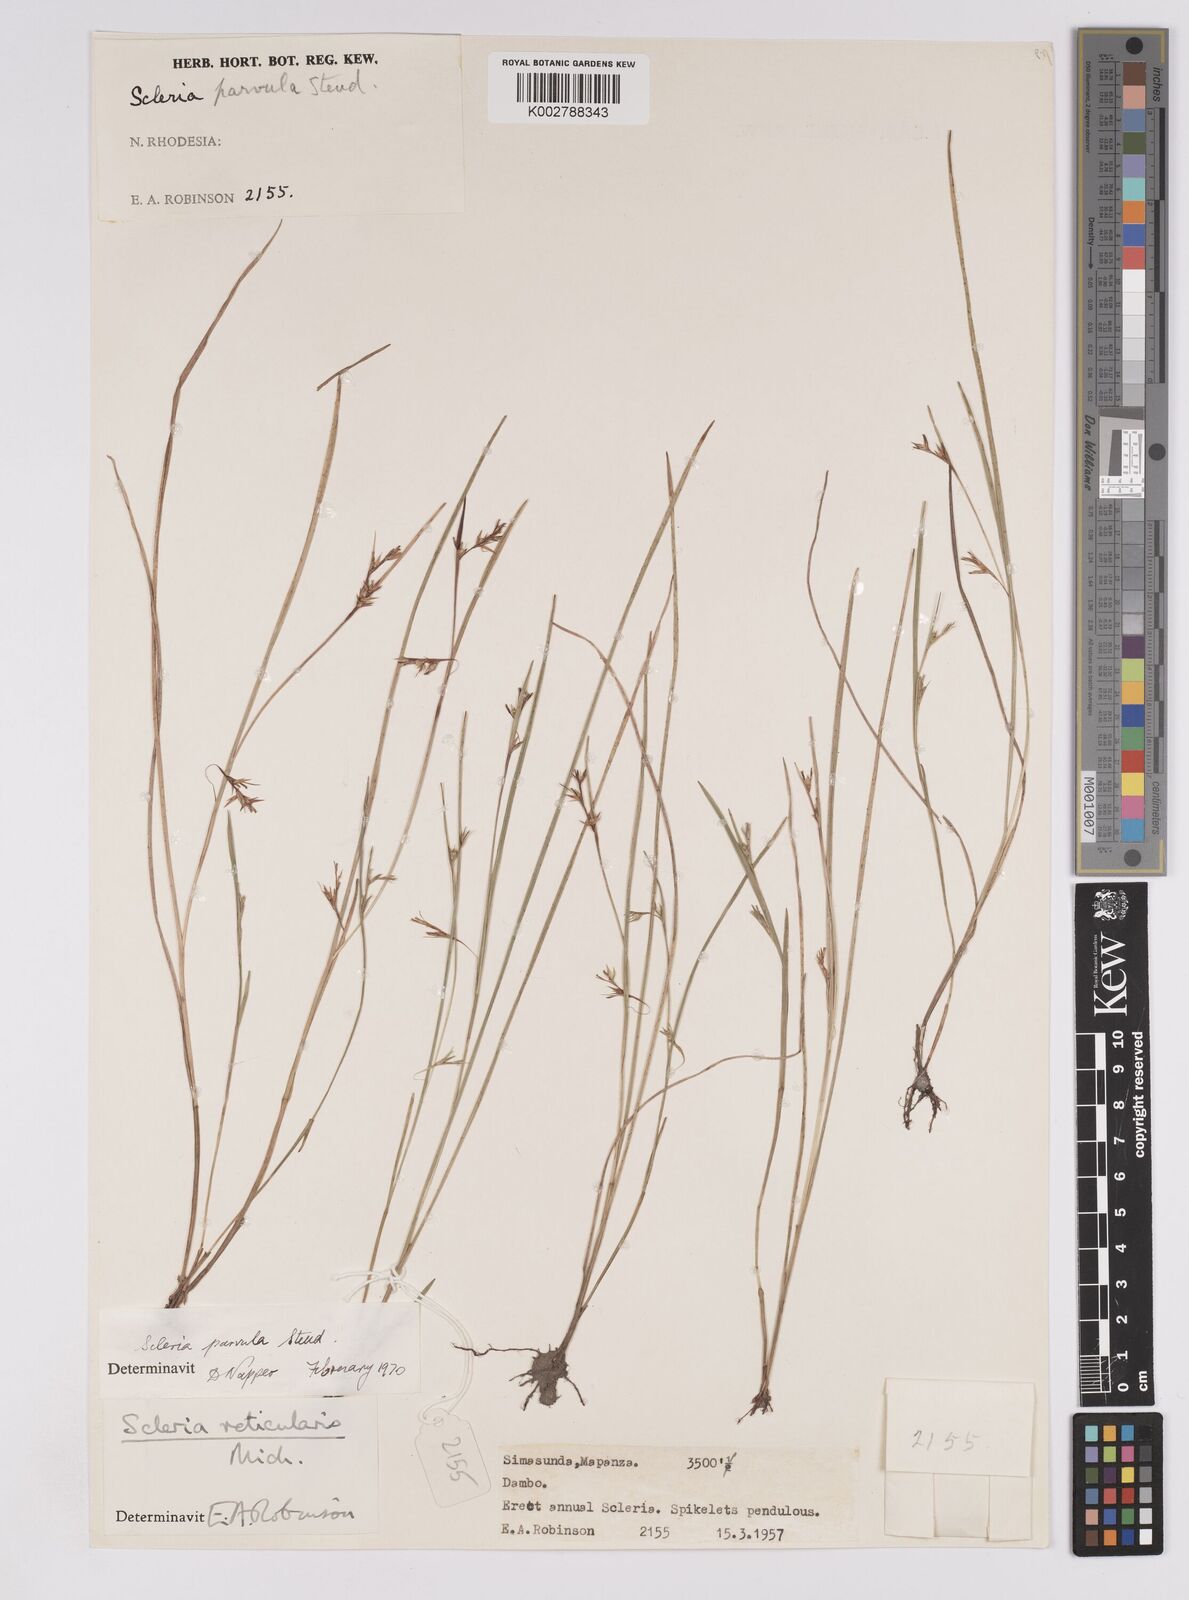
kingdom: Plantae
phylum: Tracheophyta
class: Liliopsida
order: Poales
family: Cyperaceae
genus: Scleria
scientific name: Scleria parvula
